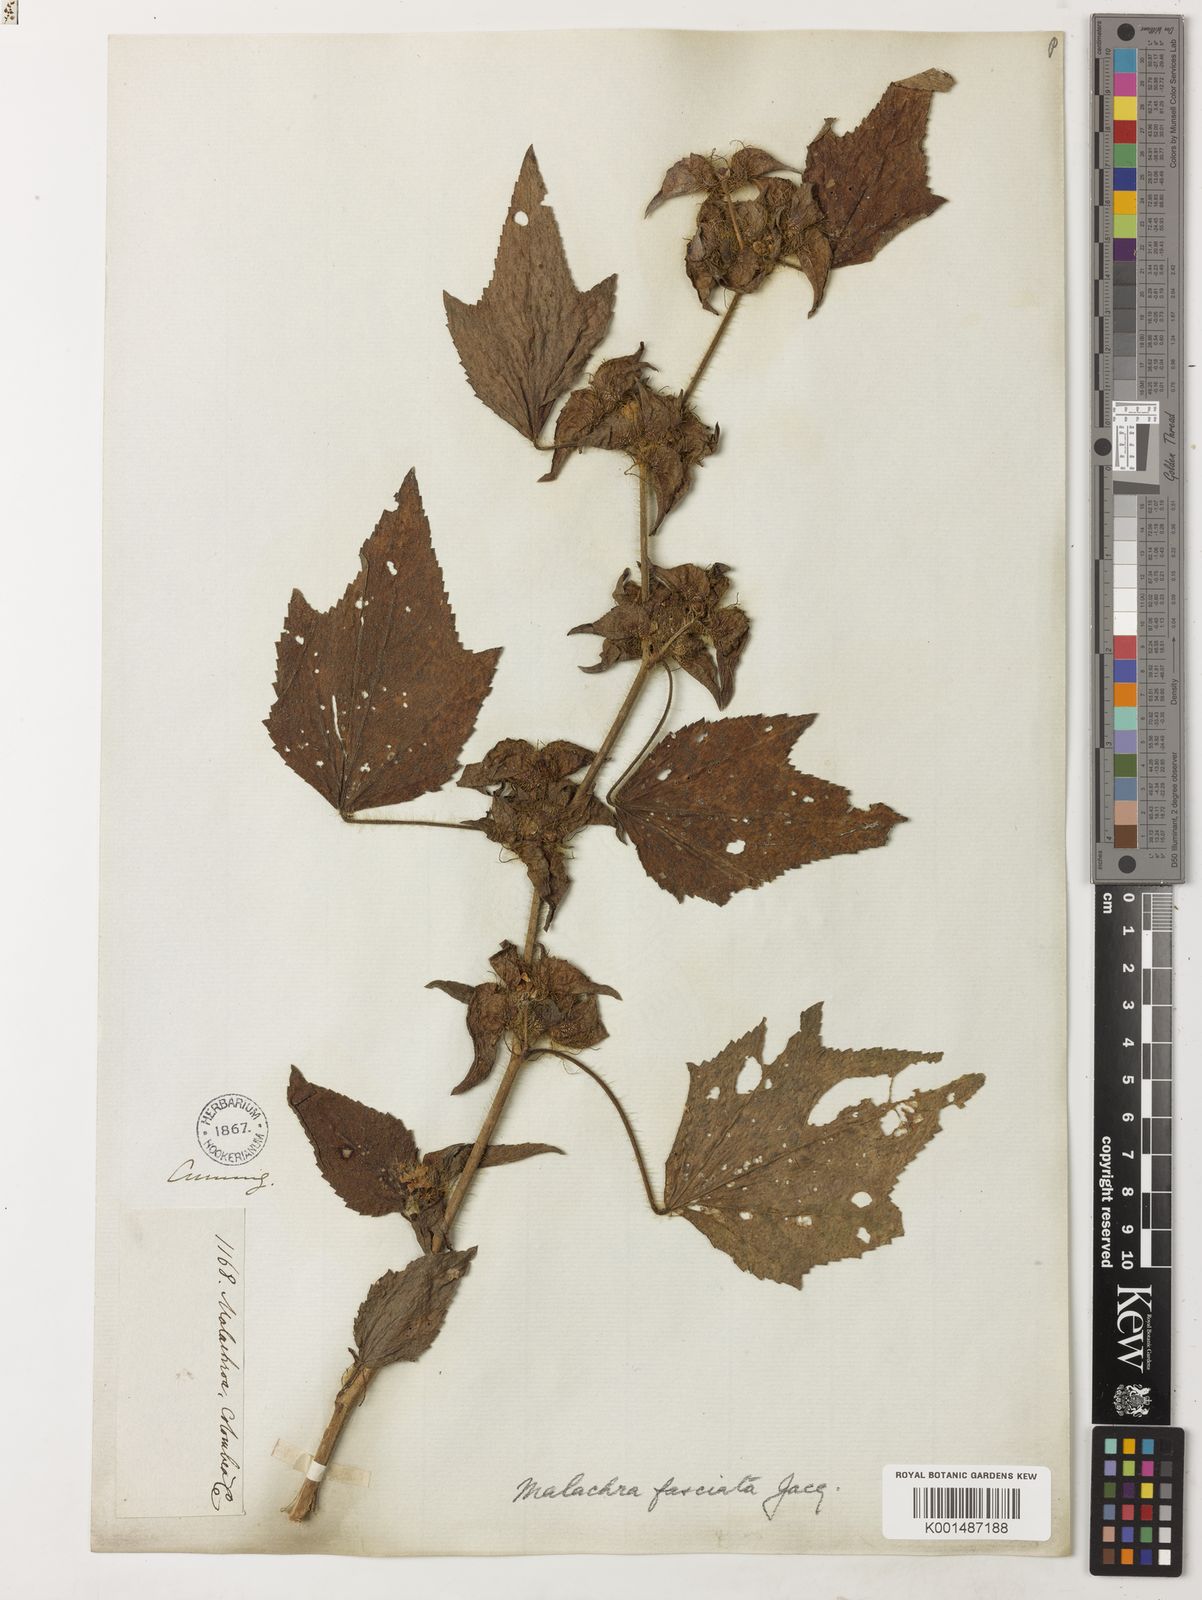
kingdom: Plantae
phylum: Tracheophyta
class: Magnoliopsida
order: Malvales
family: Malvaceae
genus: Malachra
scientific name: Malachra fasciata
